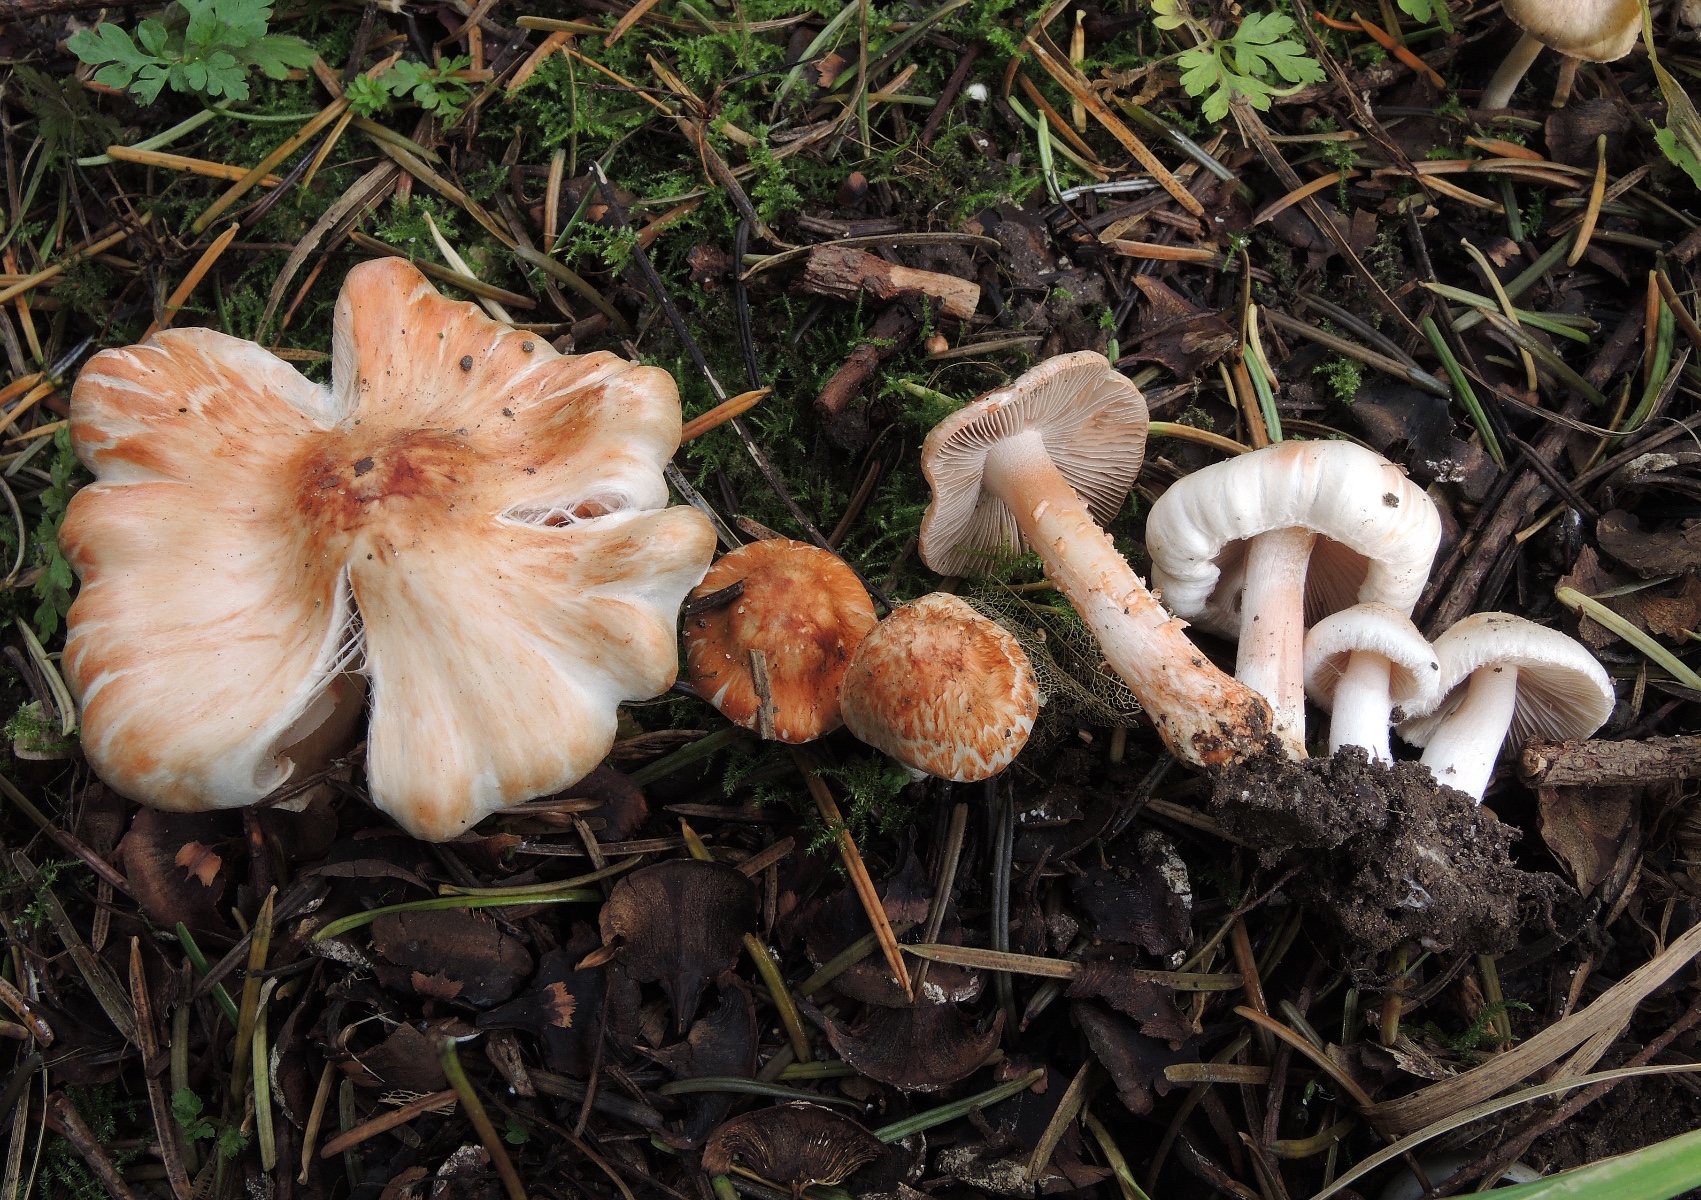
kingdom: Fungi
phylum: Basidiomycota
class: Agaricomycetes
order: Agaricales
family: Inocybaceae
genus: Inocybe
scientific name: Inocybe
